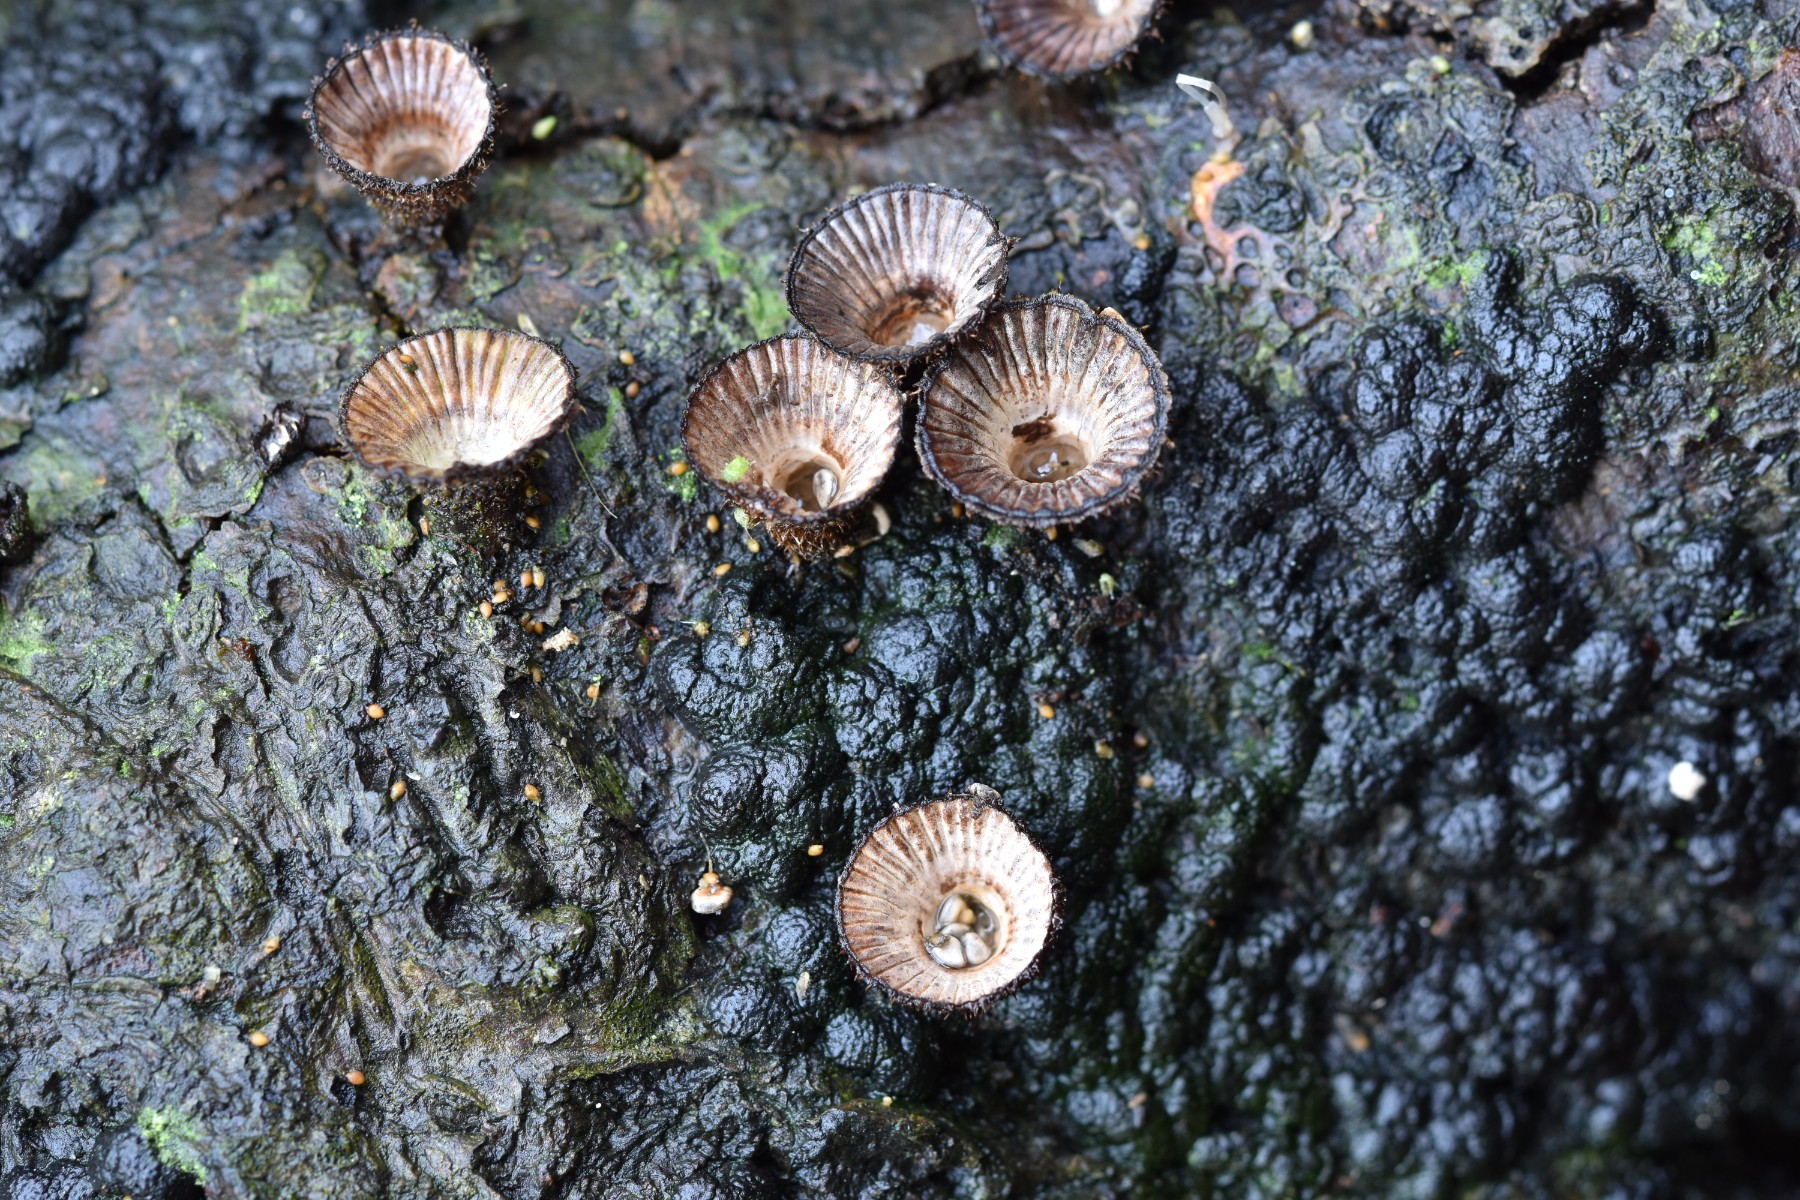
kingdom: Fungi
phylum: Basidiomycota
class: Agaricomycetes
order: Agaricales
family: Agaricaceae
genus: Cyathus
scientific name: Cyathus striatus
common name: stribet redesvamp
